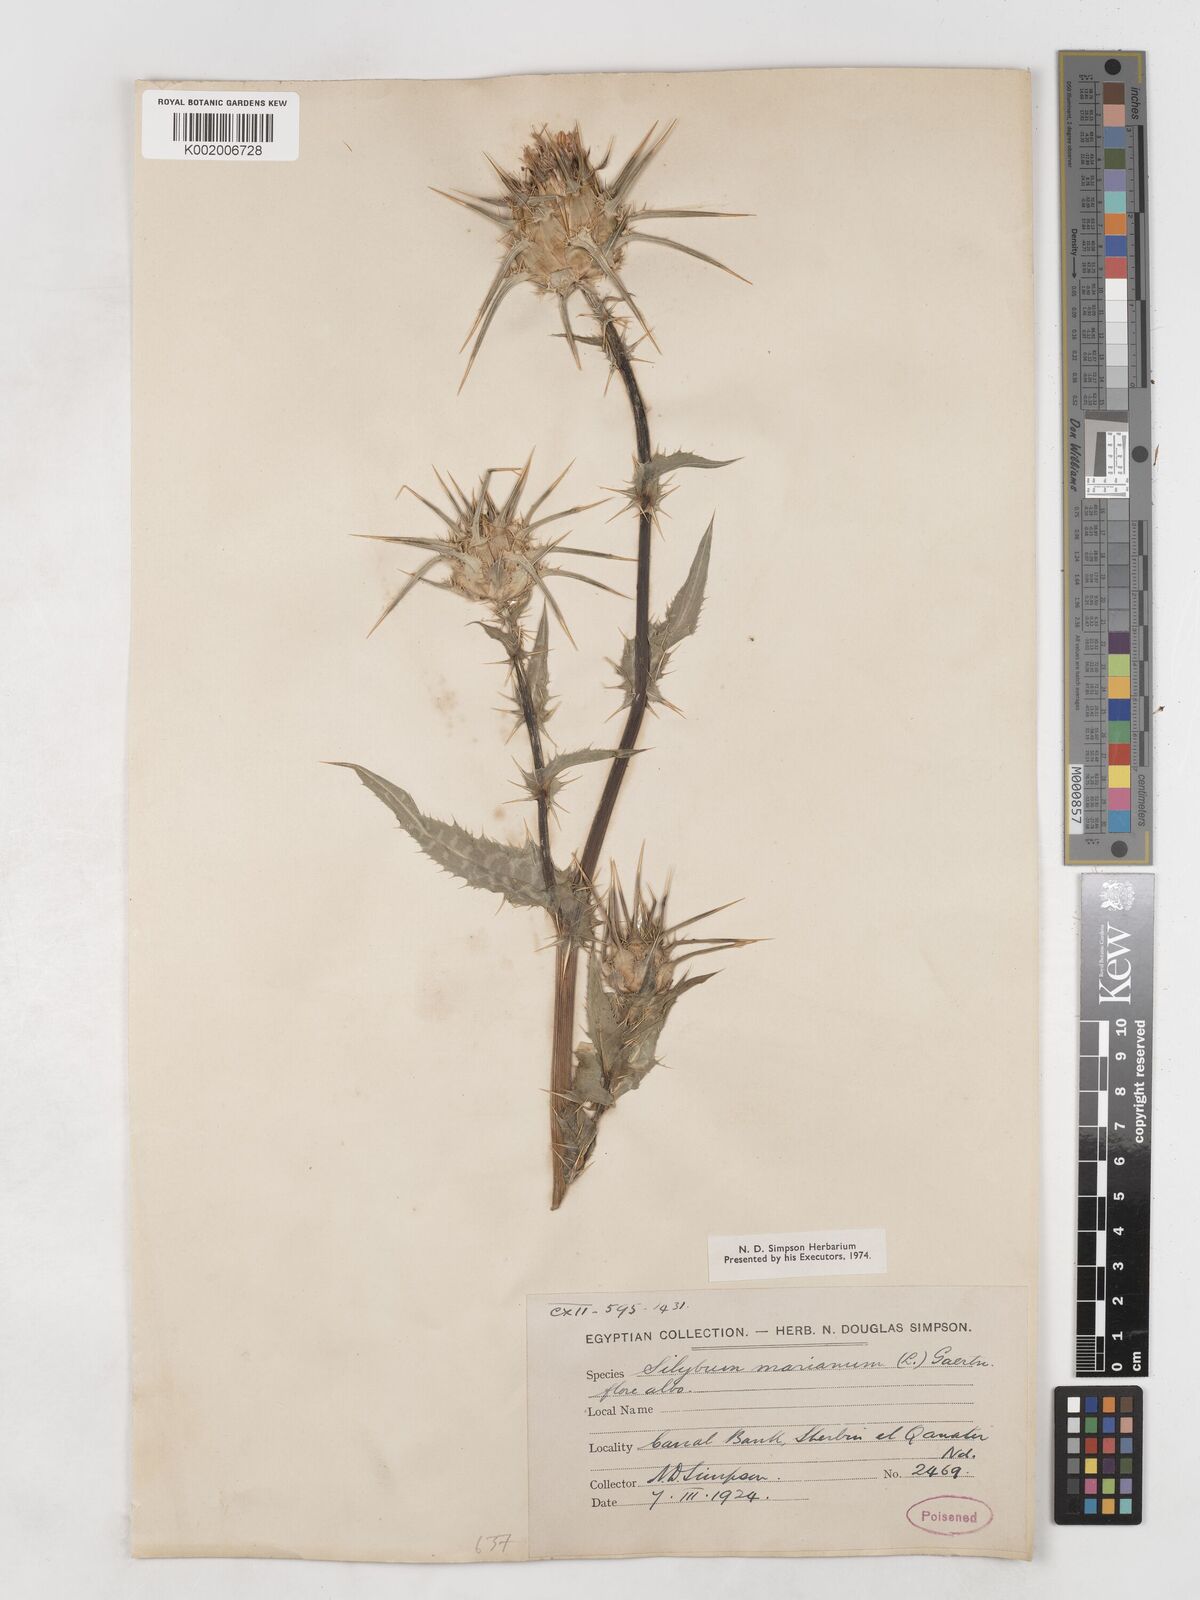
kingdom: Plantae
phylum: Tracheophyta
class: Magnoliopsida
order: Asterales
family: Asteraceae
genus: Silybum
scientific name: Silybum marianum
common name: Milk thistle
